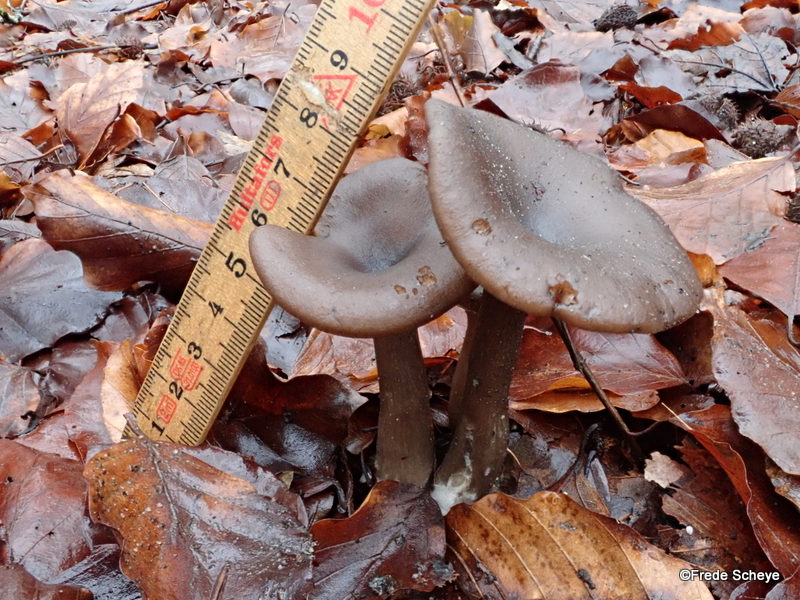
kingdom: Fungi
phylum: Basidiomycota
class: Agaricomycetes
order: Agaricales
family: Pseudoclitocybaceae
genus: Pseudoclitocybe
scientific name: Pseudoclitocybe cyathiformis
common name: almindelig bægertragthat
